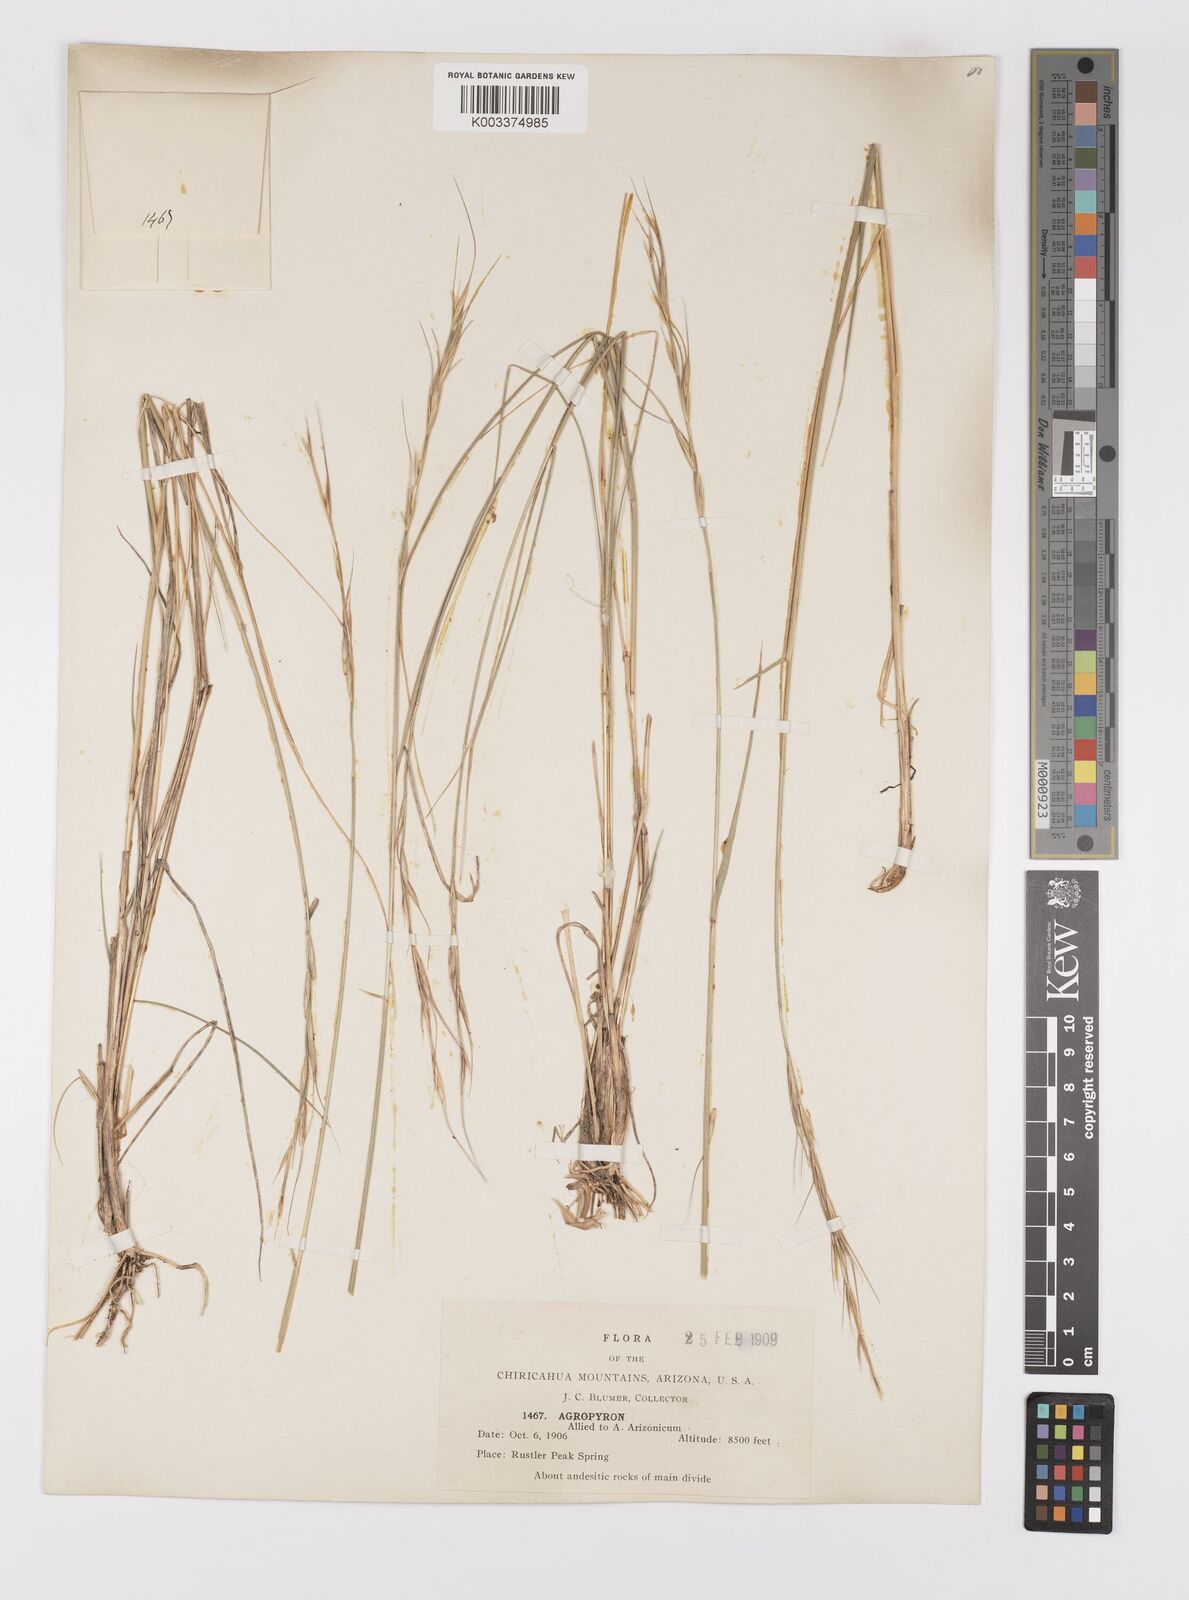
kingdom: Plantae
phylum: Tracheophyta
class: Liliopsida
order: Poales
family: Poaceae
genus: Elymus
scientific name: Elymus arizonicus
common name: Arizona wheatgrass
